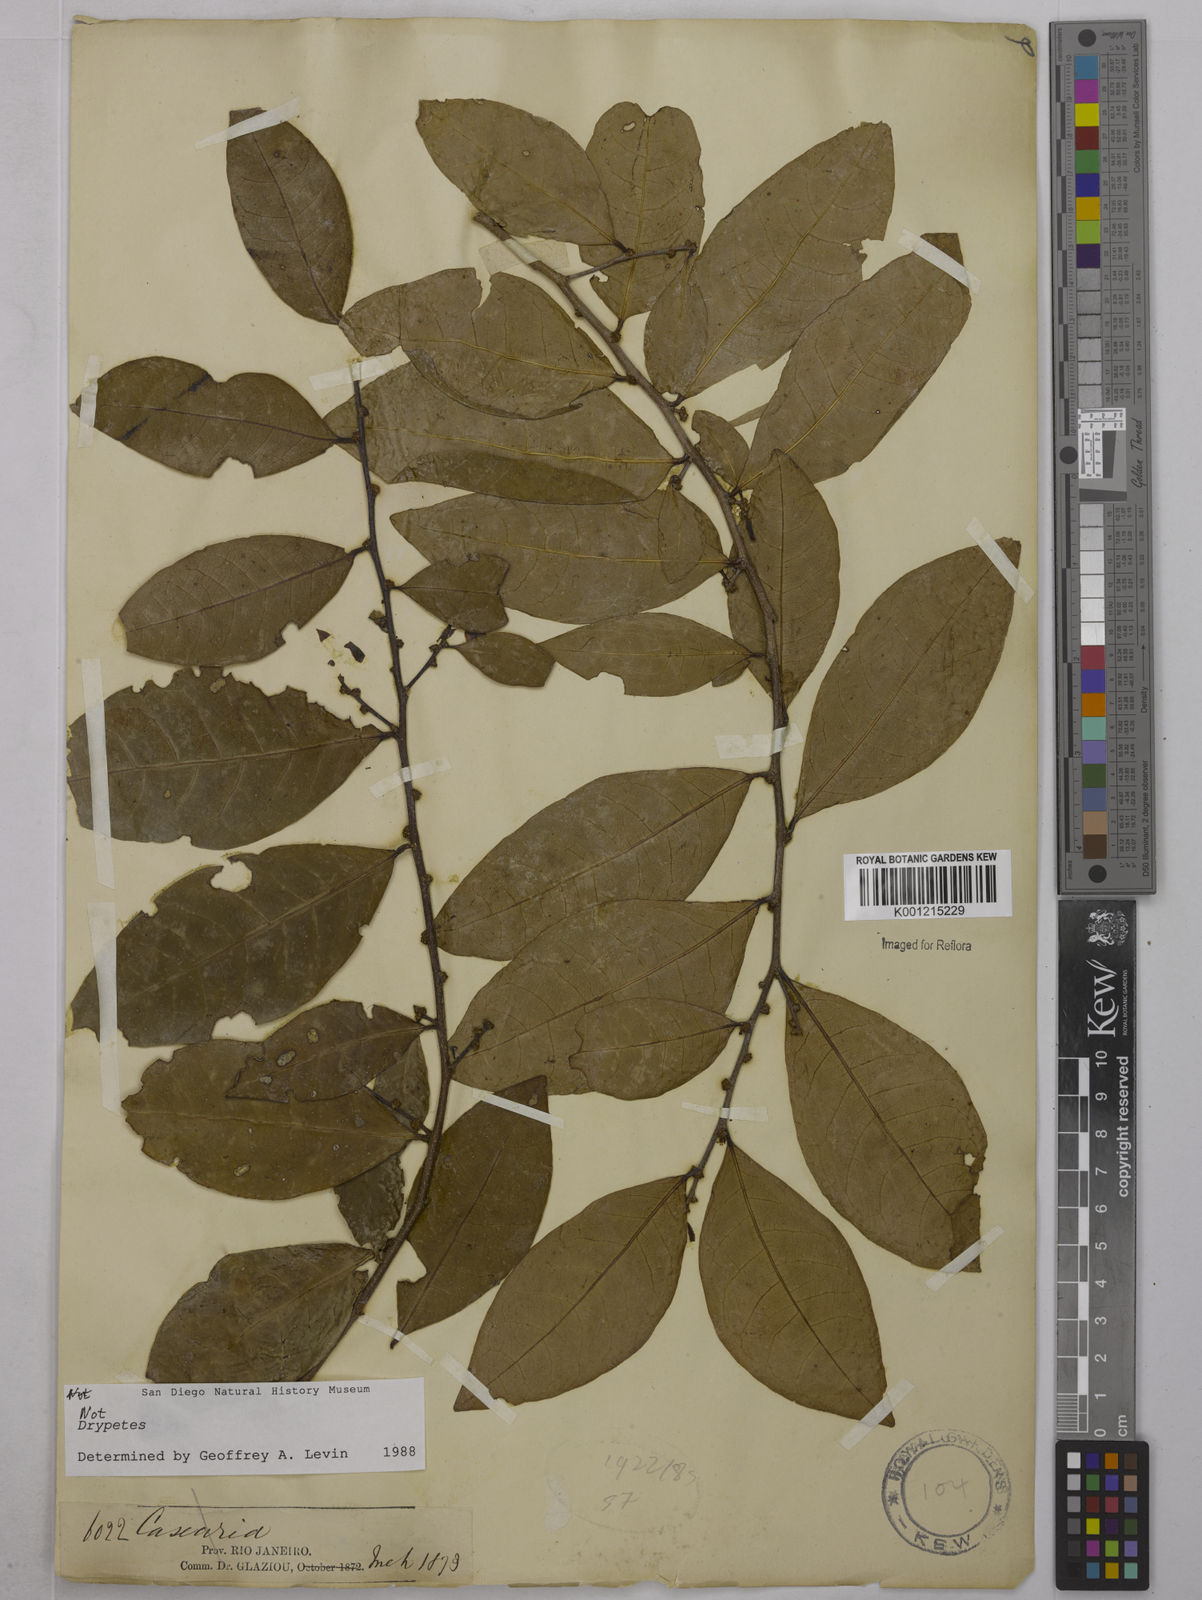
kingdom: Plantae
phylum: Tracheophyta
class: Magnoliopsida
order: Malpighiales
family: Euphorbiaceae
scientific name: Euphorbiaceae
